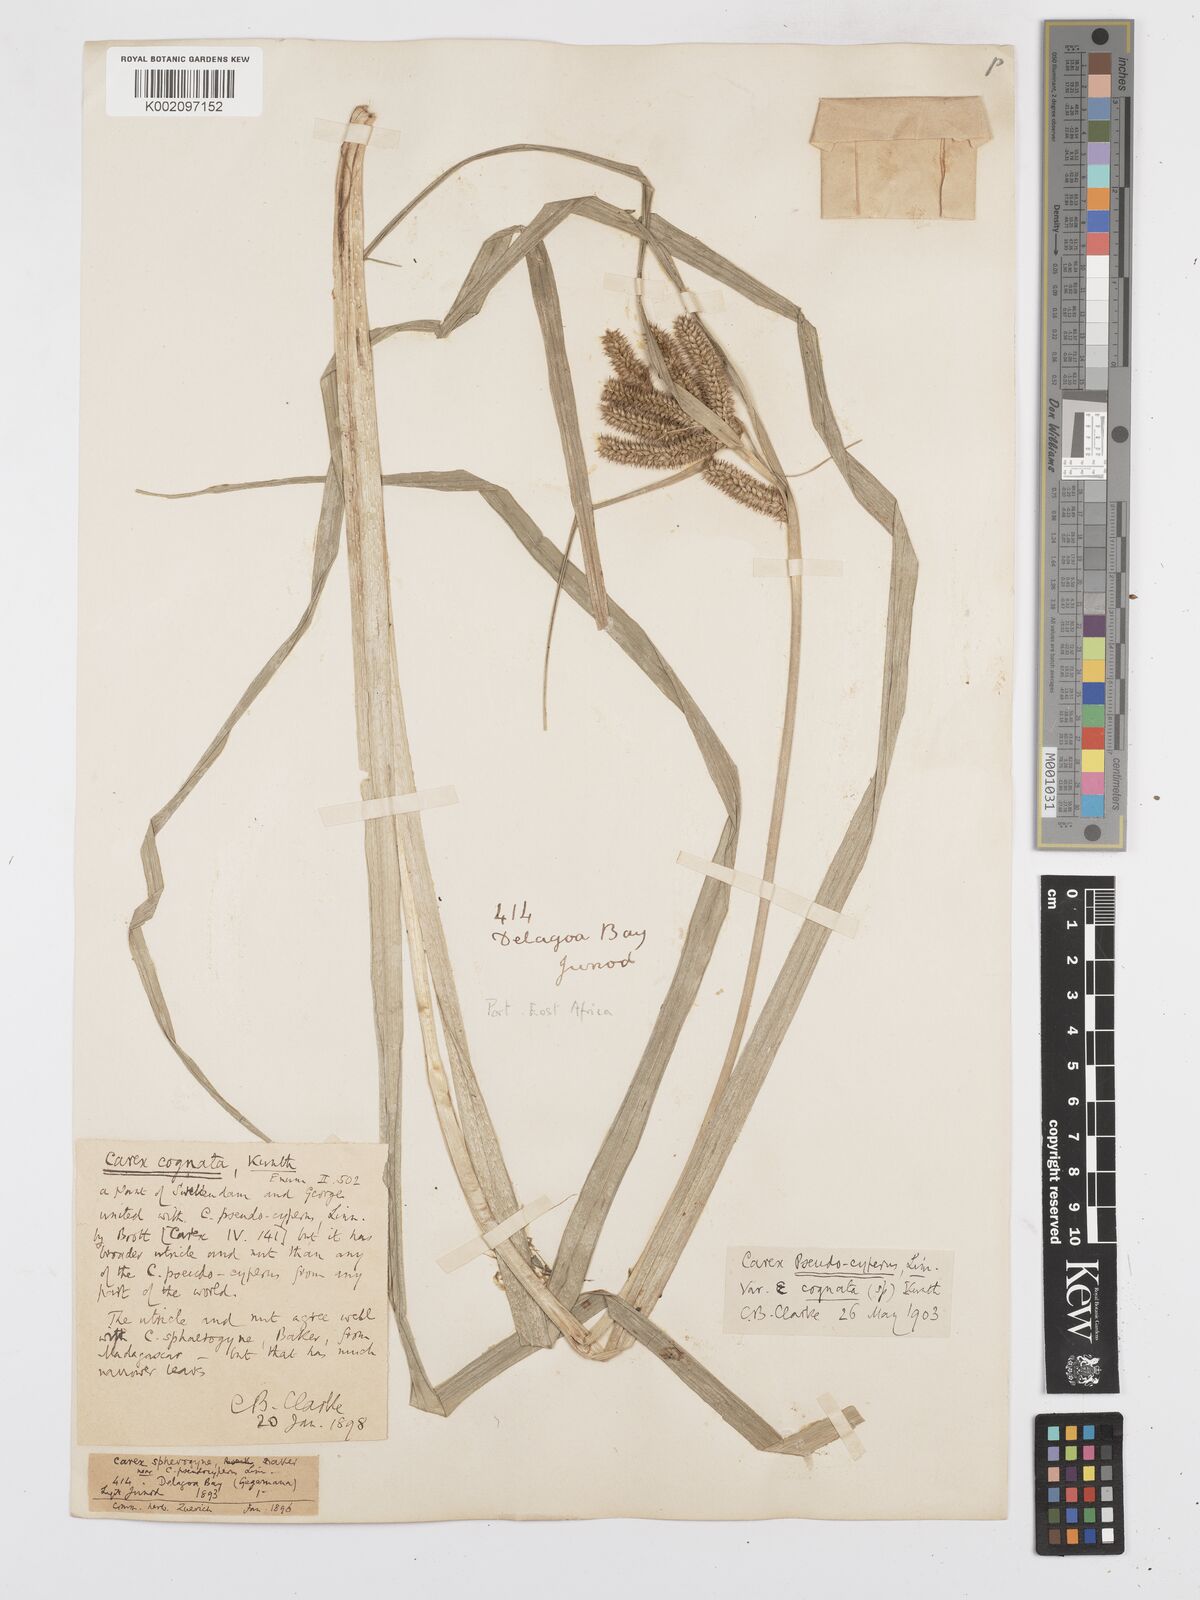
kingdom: Plantae
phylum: Tracheophyta
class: Liliopsida
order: Poales
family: Cyperaceae
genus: Carex
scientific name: Carex cognata
